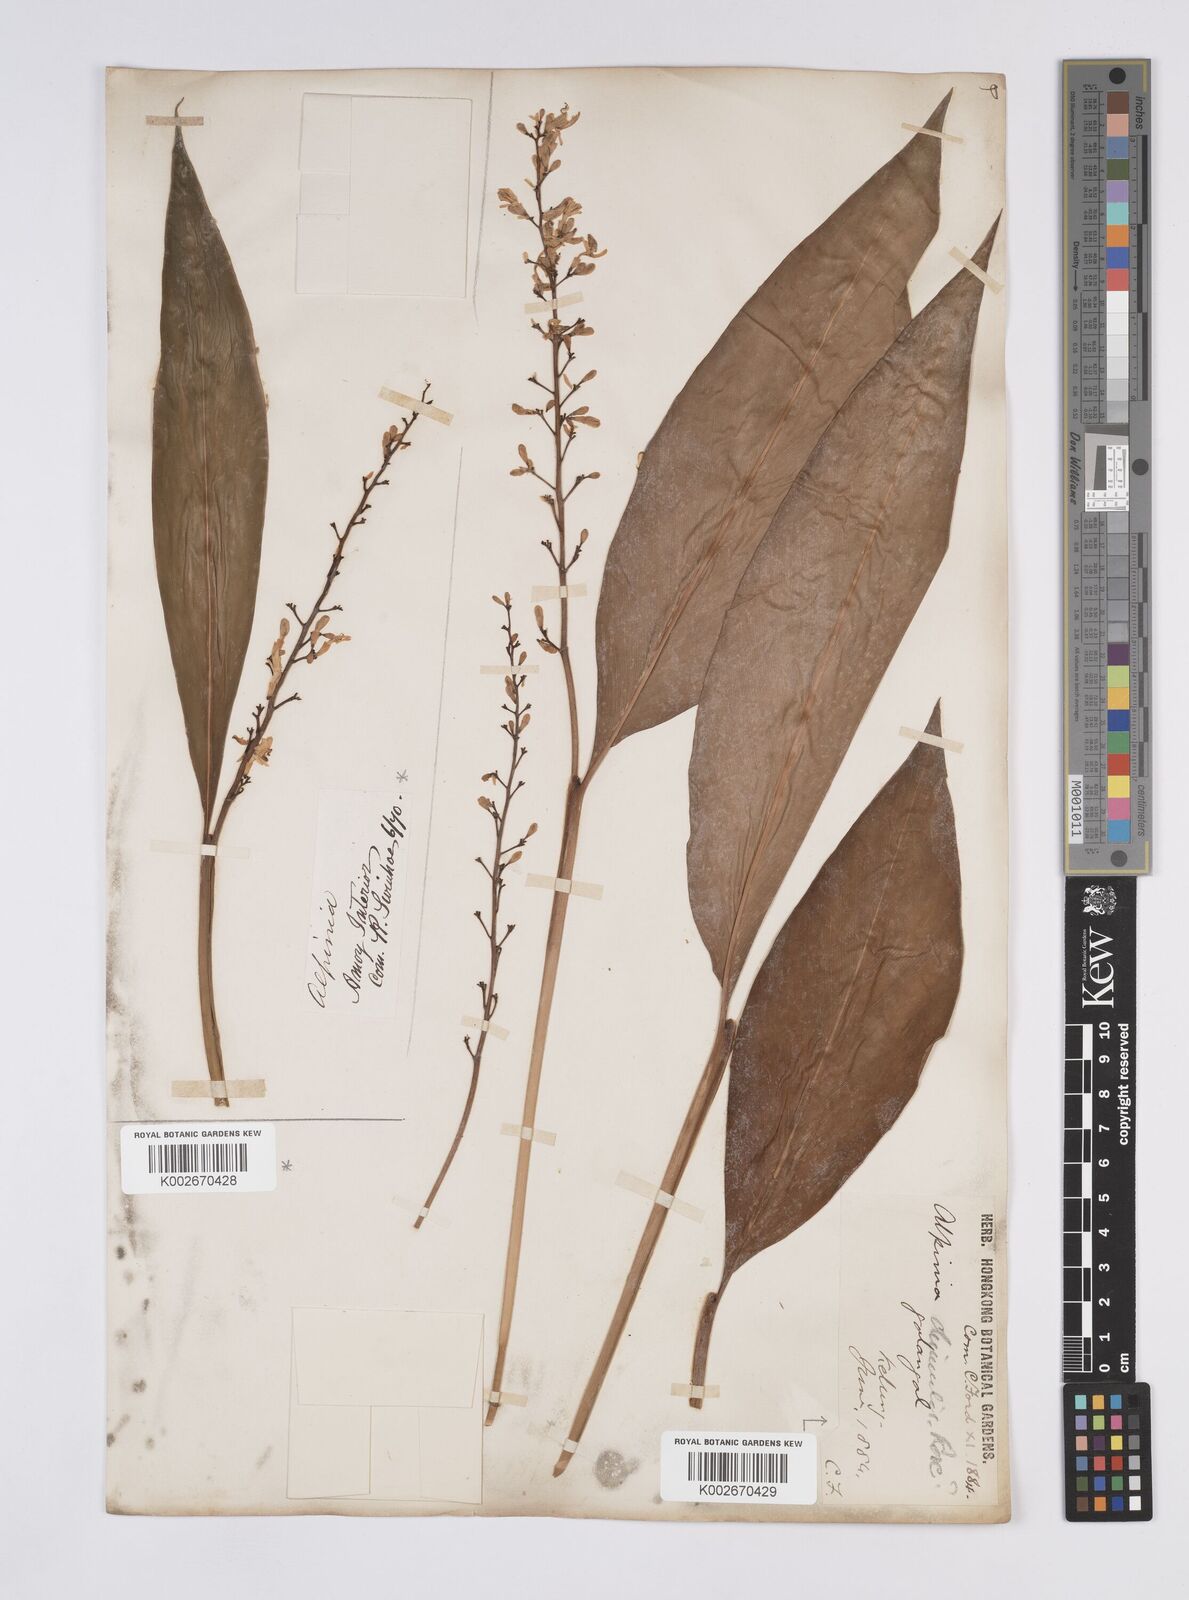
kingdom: Plantae
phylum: Tracheophyta
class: Liliopsida
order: Zingiberales
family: Zingiberaceae
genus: Alpinia
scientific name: Alpinia chinensis
